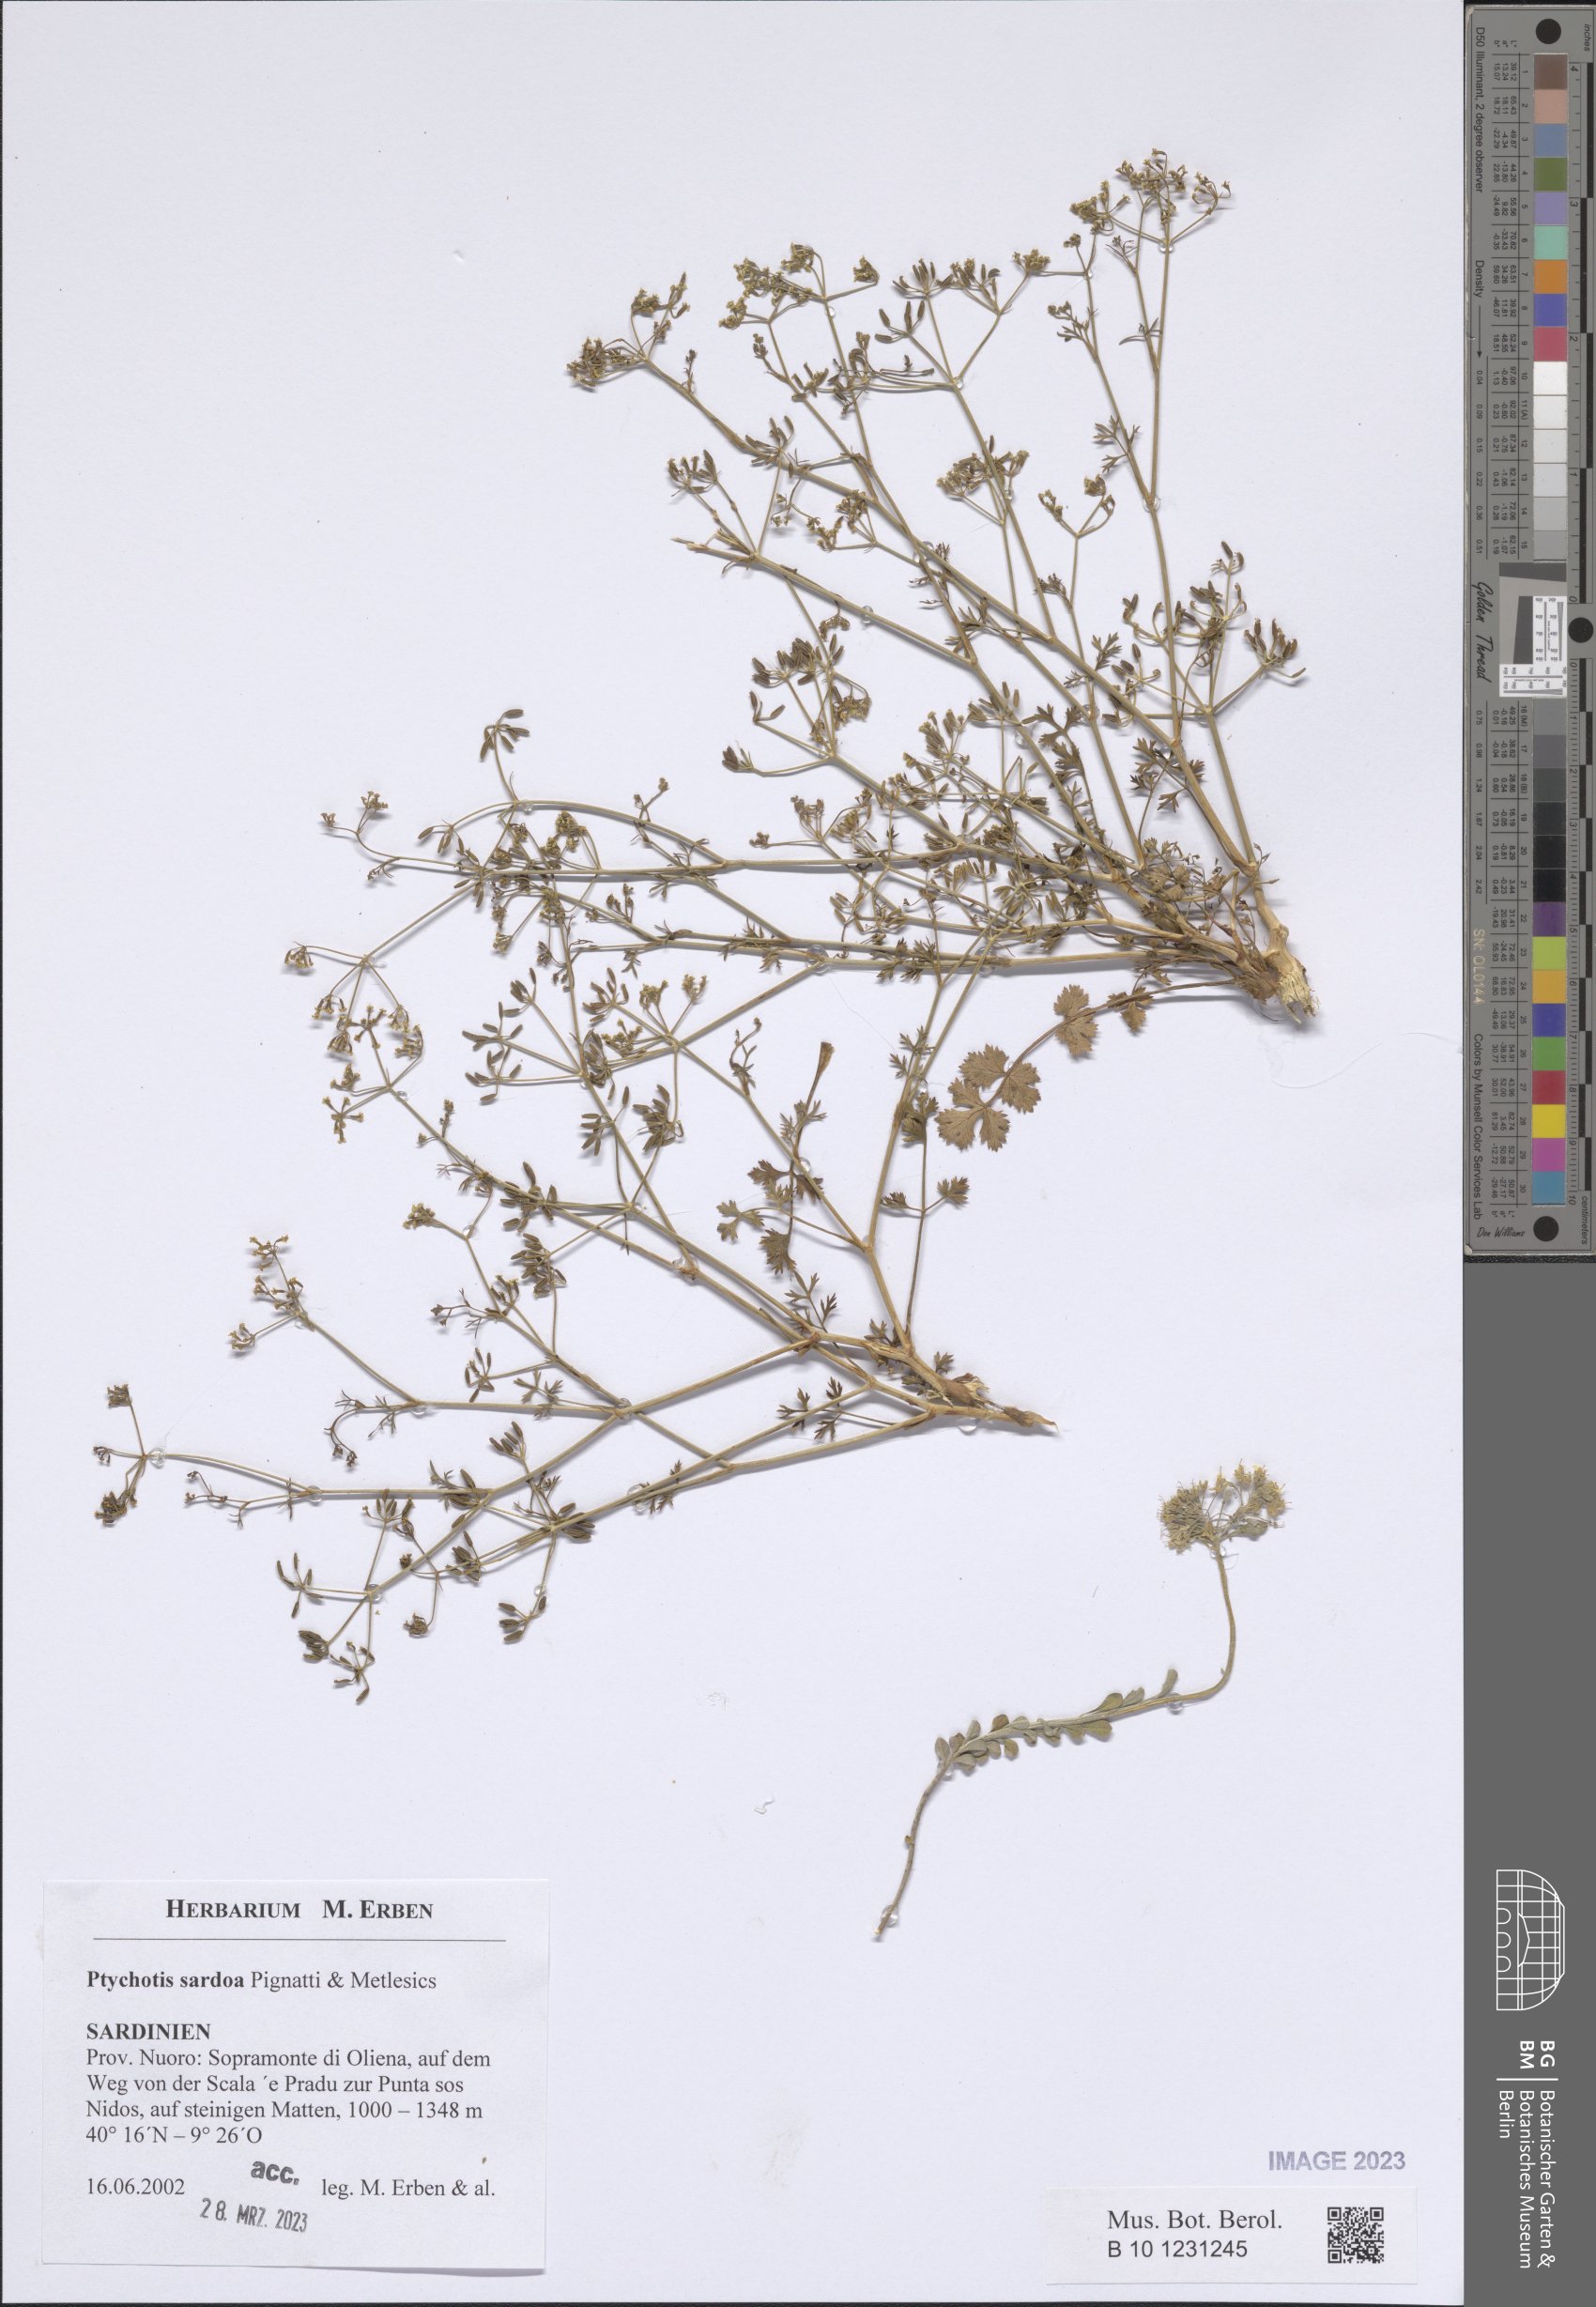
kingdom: Plantae
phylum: Tracheophyta
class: Magnoliopsida
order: Apiales
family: Apiaceae
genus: Ptychotis
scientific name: Ptychotis sardoa
